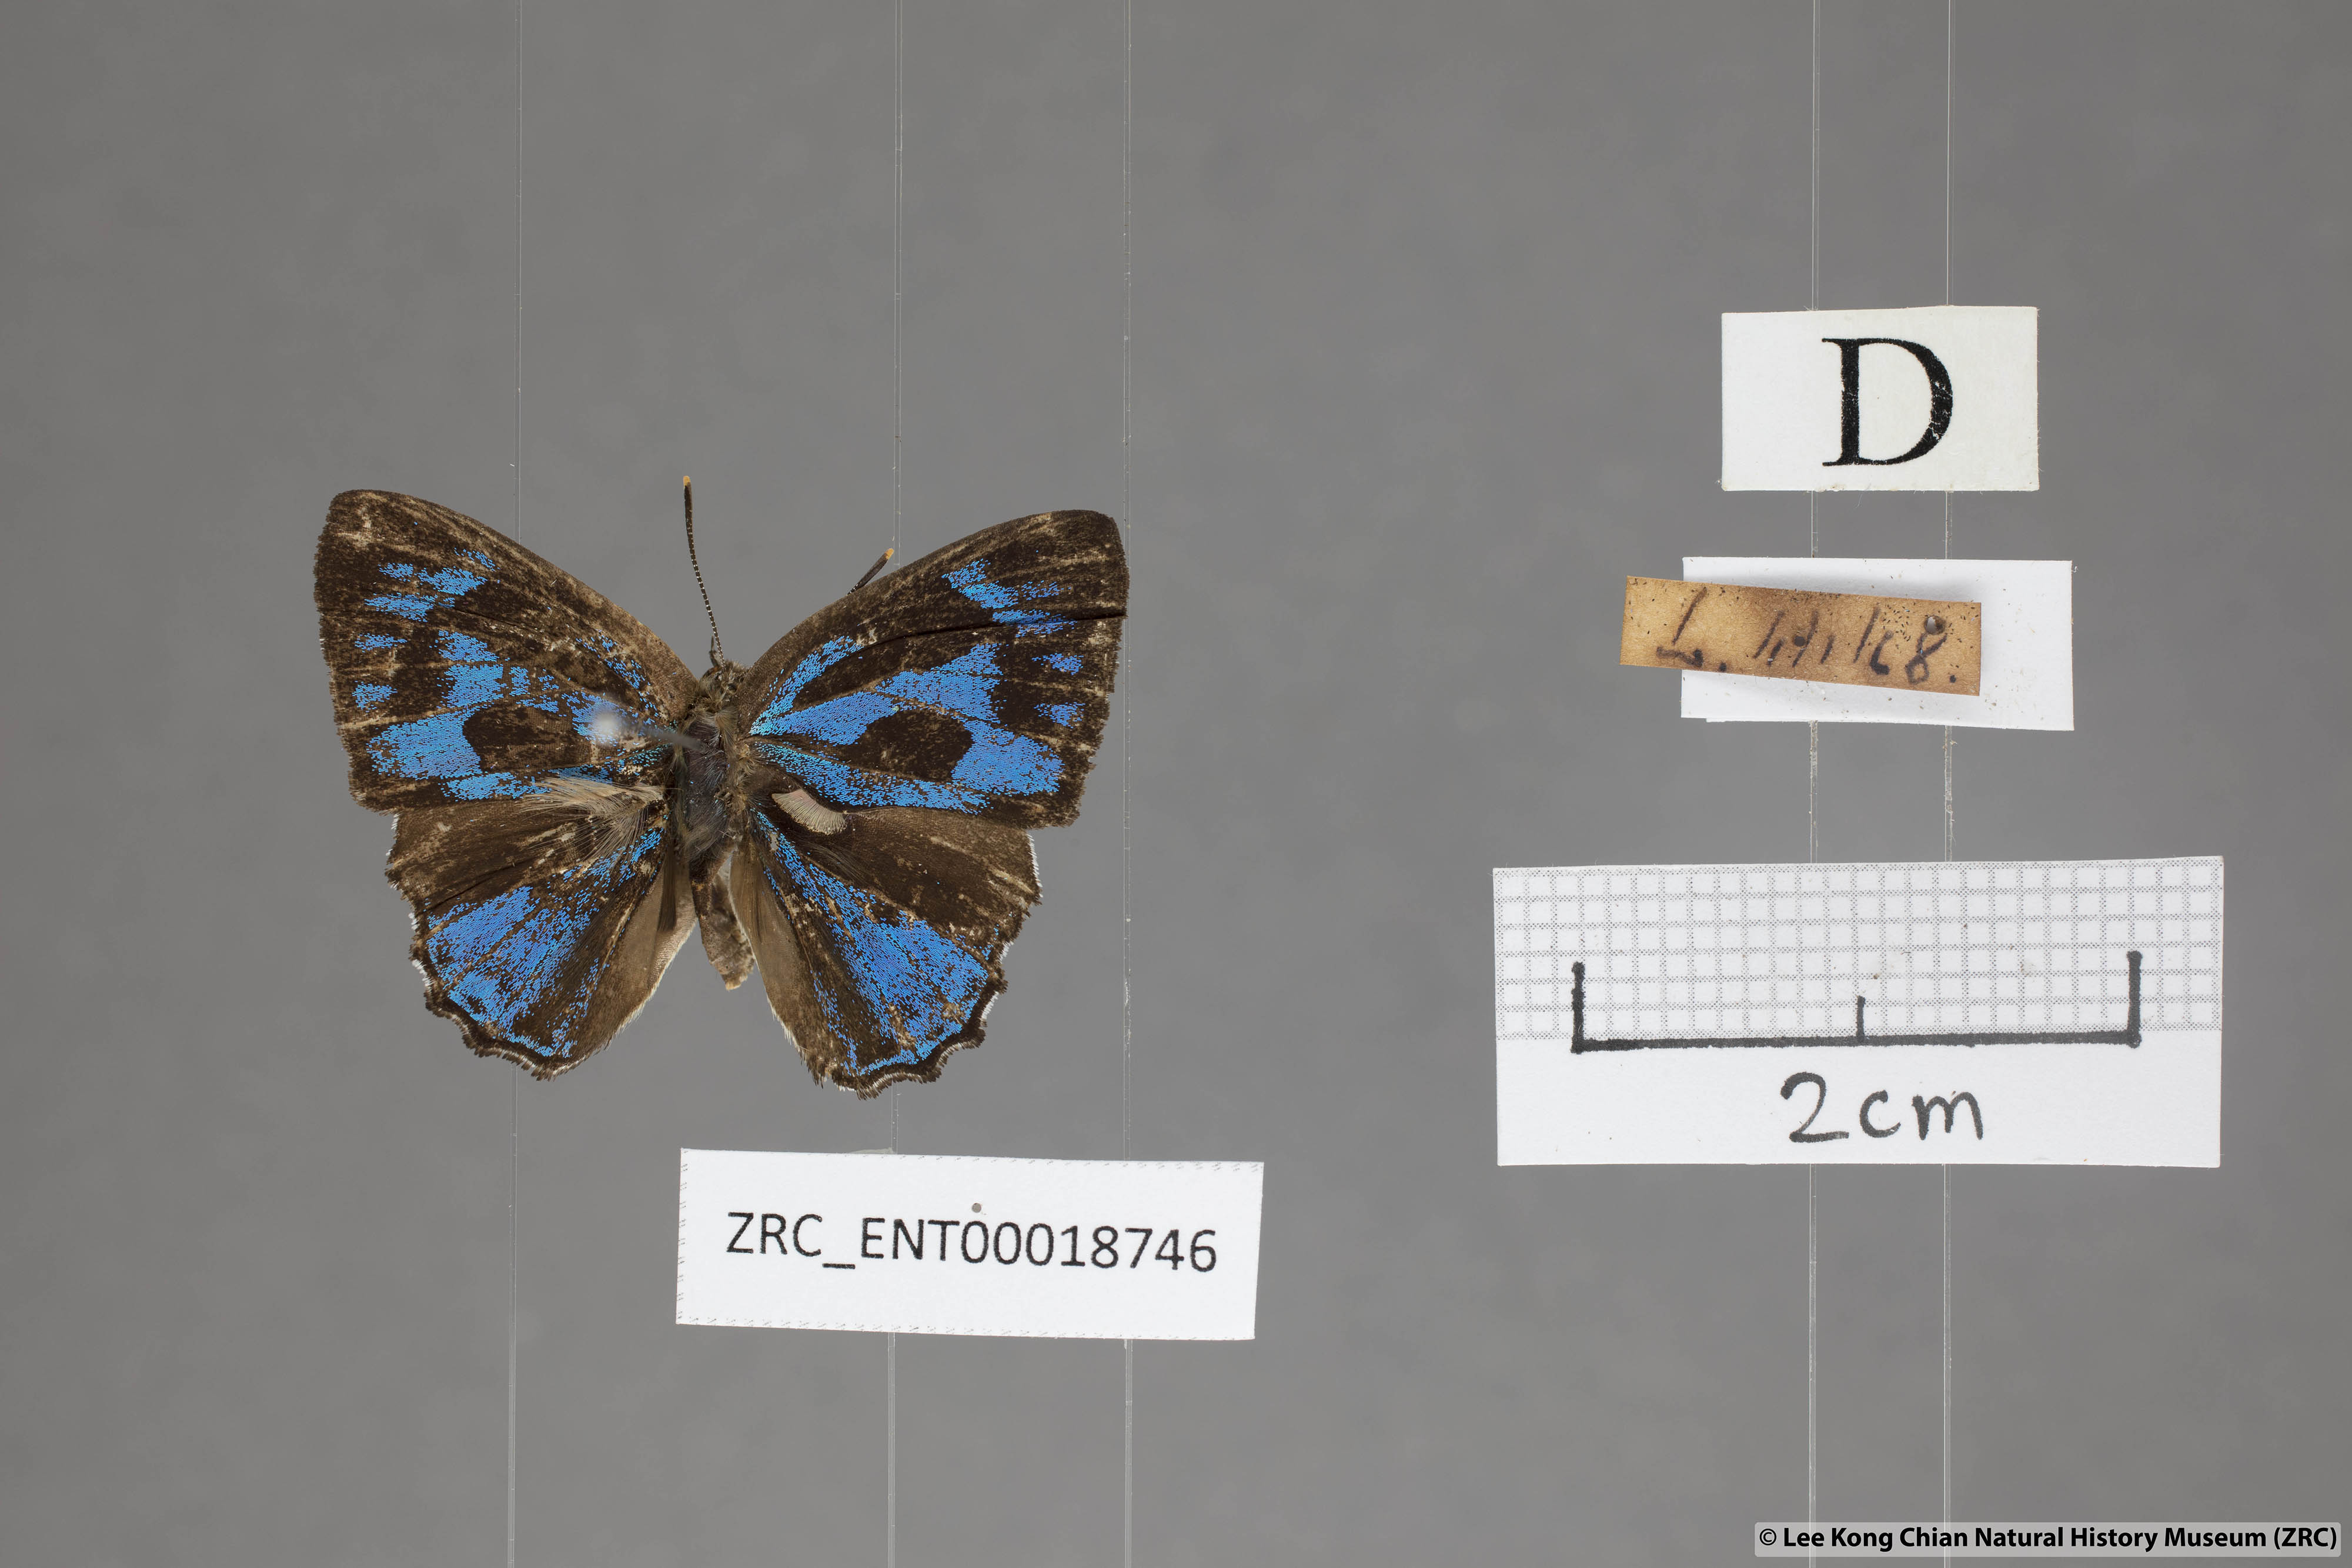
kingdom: Animalia
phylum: Arthropoda
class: Insecta
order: Lepidoptera
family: Lycaenidae
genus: Poritia
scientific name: Poritia erycinoides
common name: Blue gem
